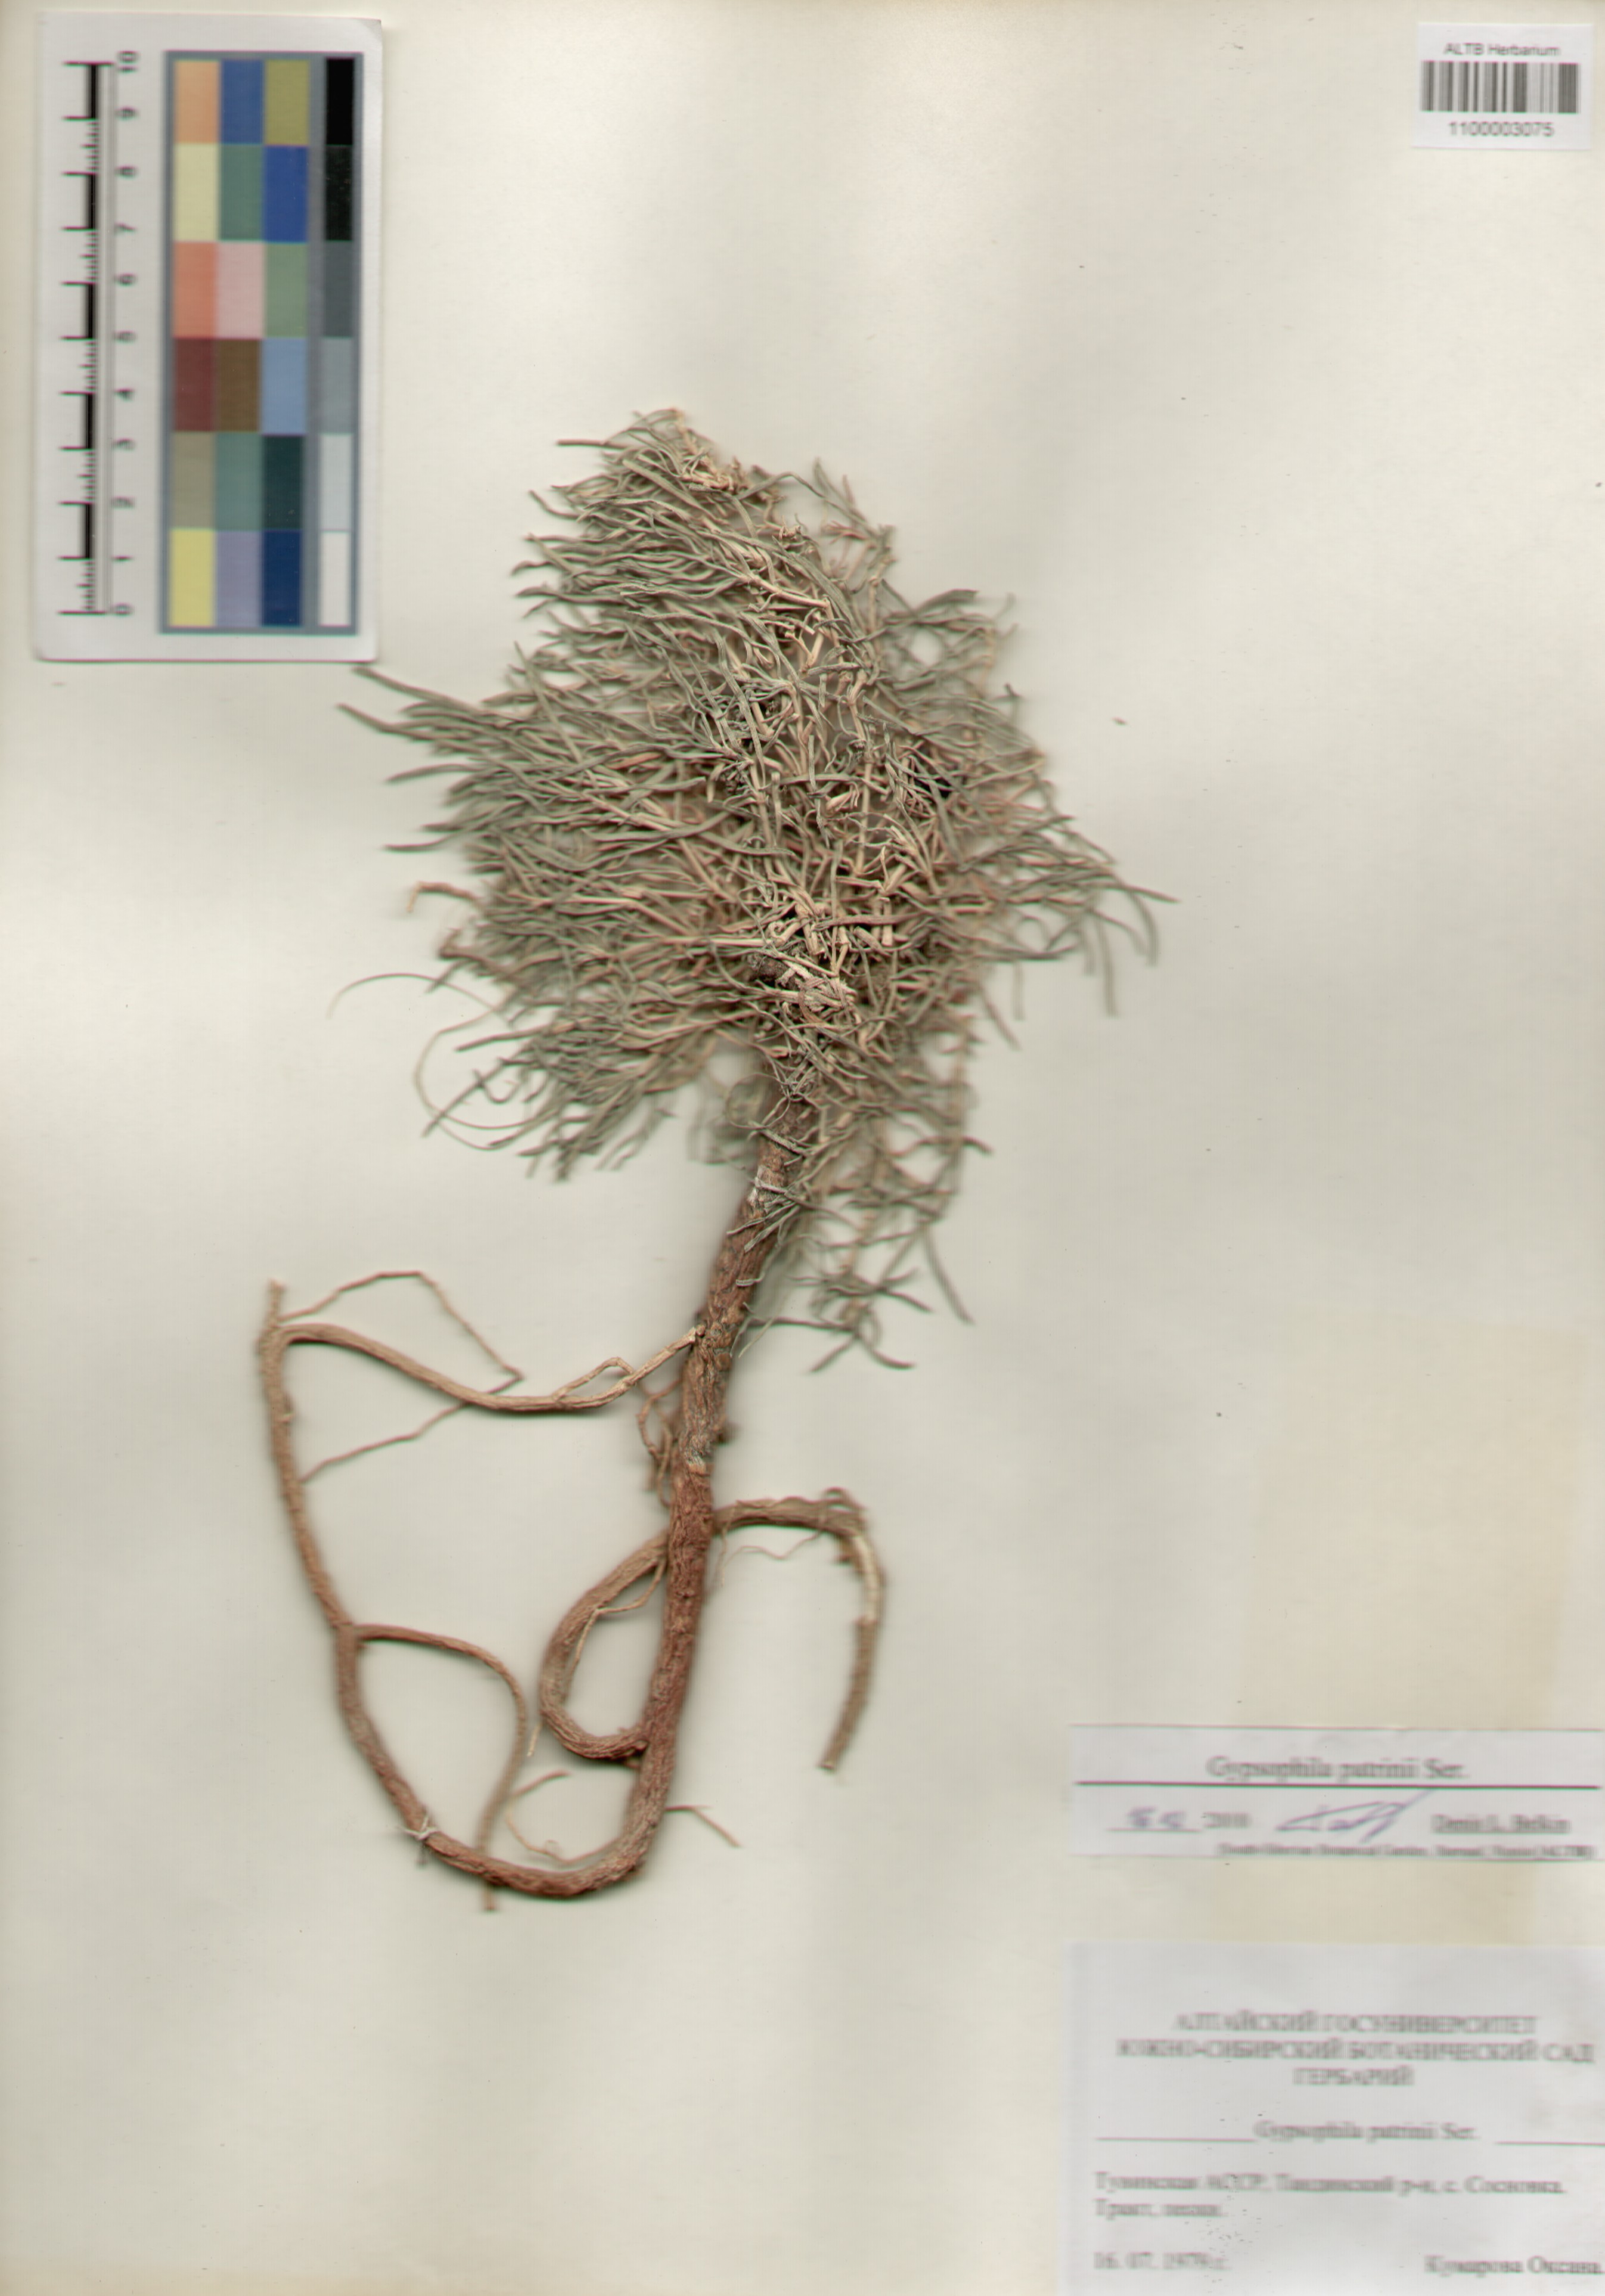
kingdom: Plantae
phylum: Tracheophyta
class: Magnoliopsida
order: Caryophyllales
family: Caryophyllaceae
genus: Gypsophila
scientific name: Gypsophila patrinii
